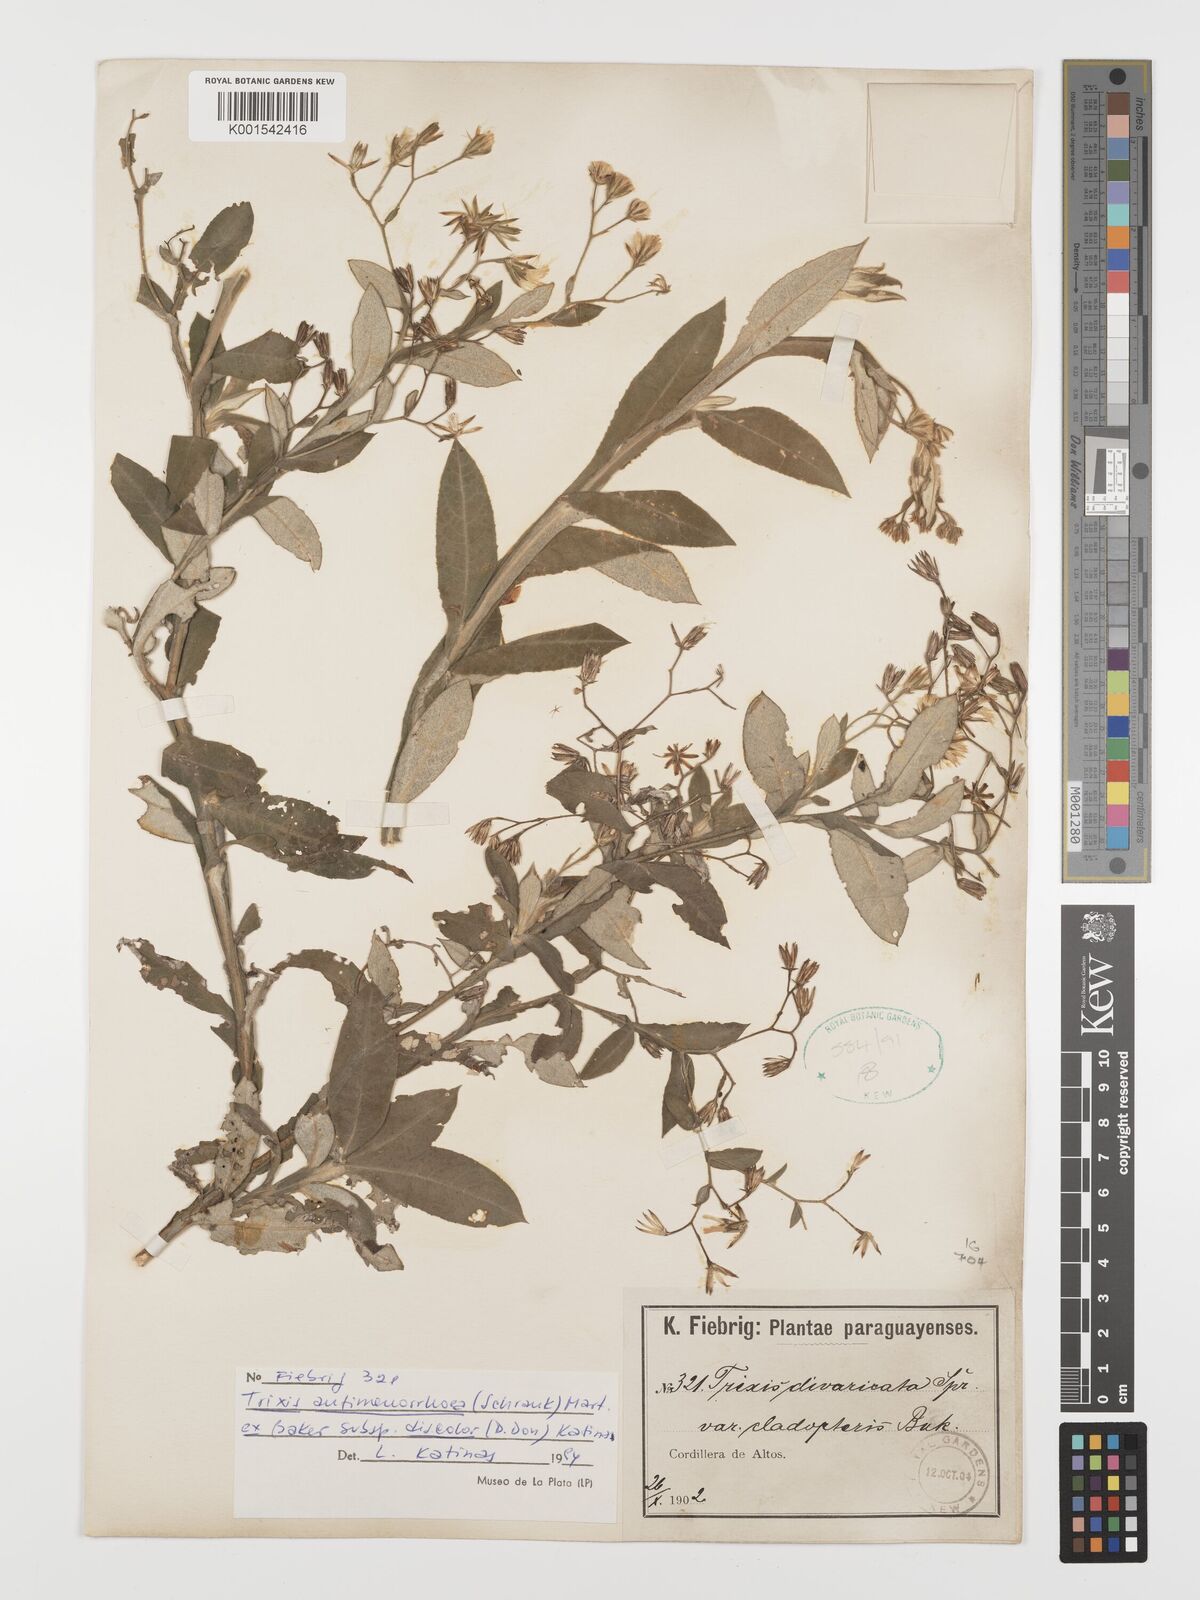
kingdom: Plantae
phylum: Tracheophyta
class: Magnoliopsida
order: Asterales
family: Asteraceae
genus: Trixis
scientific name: Trixis divaricata
